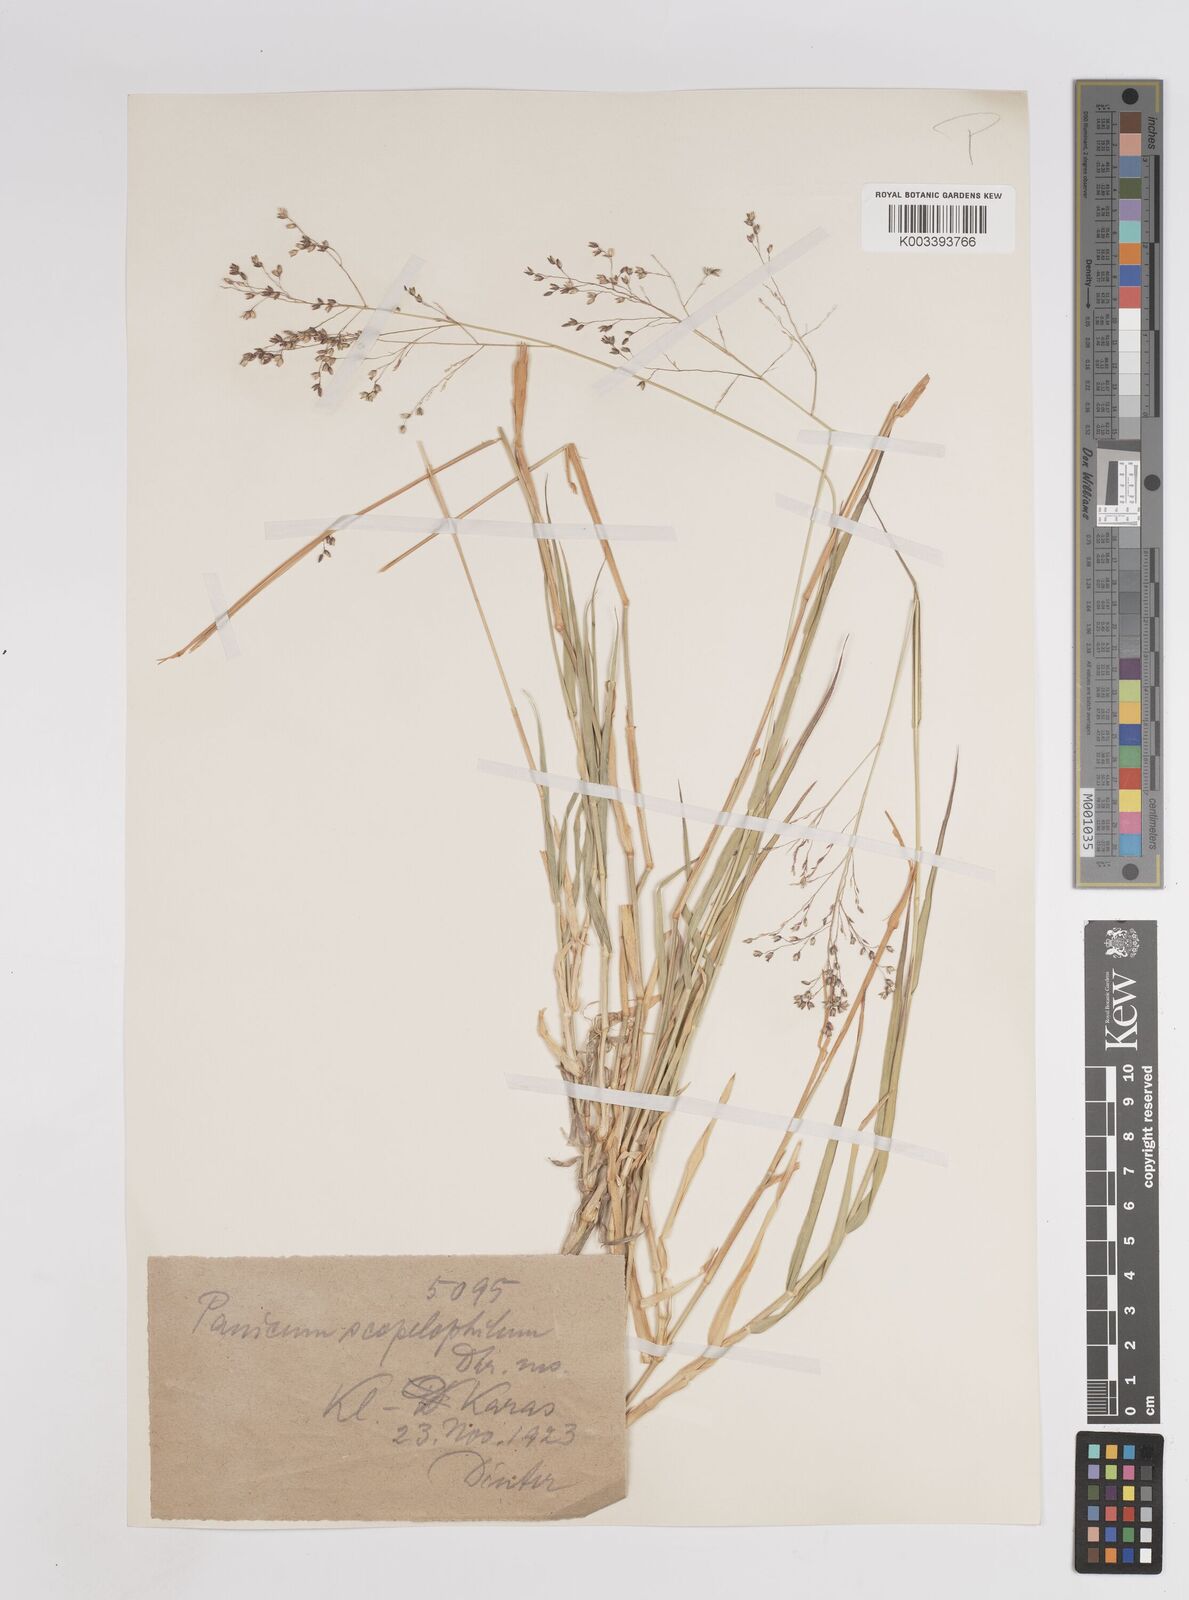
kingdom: Plantae
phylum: Tracheophyta
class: Liliopsida
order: Poales
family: Poaceae
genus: Panicum
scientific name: Panicum arbusculum
